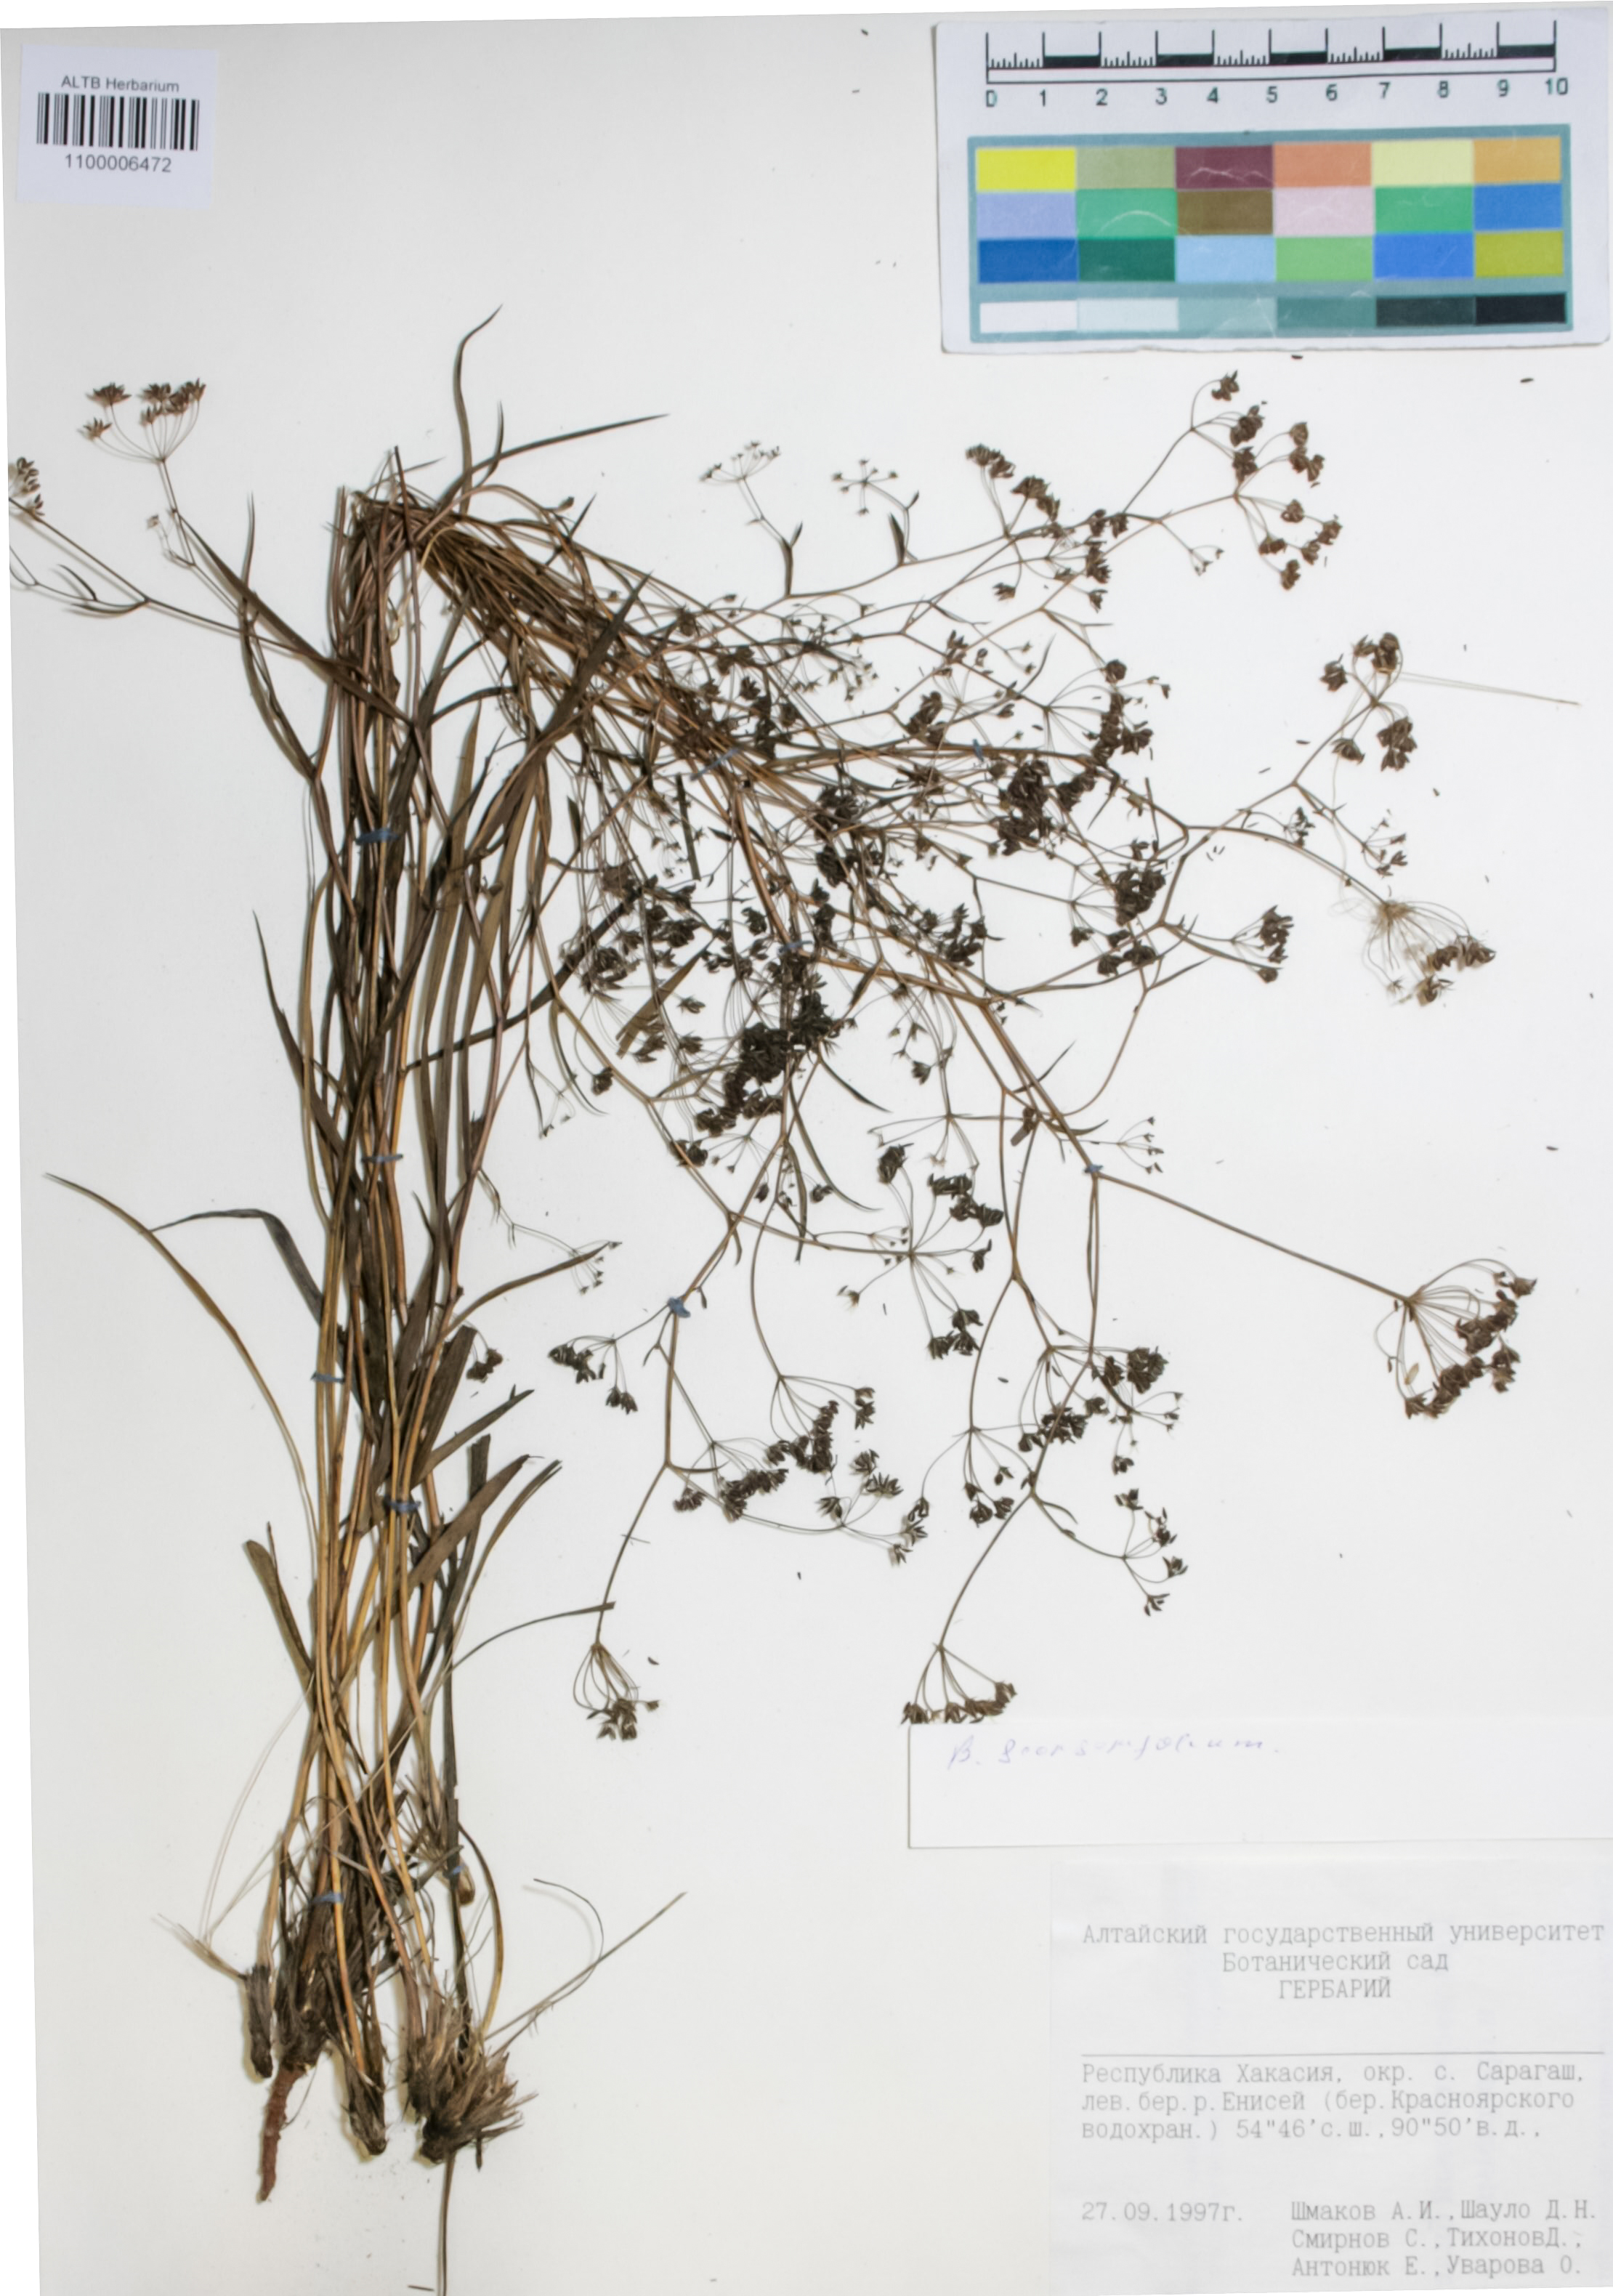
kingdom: Plantae
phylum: Tracheophyta
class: Magnoliopsida
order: Apiales
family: Apiaceae
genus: Bupleurum
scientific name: Bupleurum scorzonerifolium
